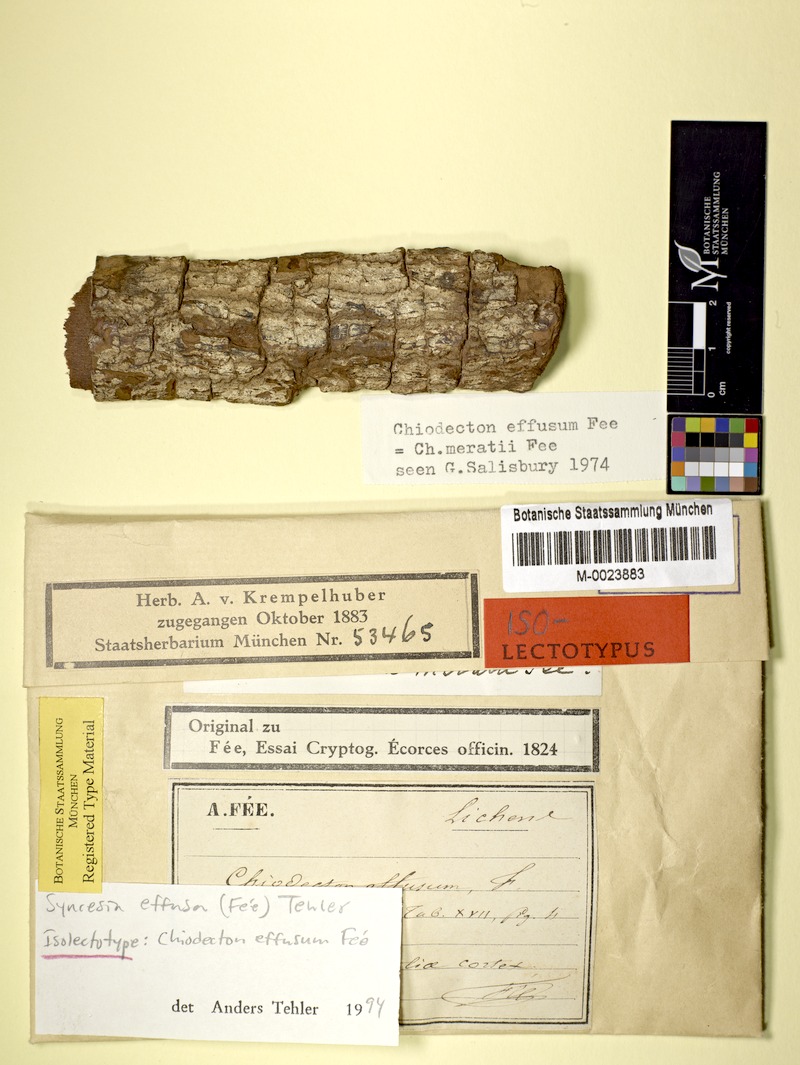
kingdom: Fungi
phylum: Ascomycota
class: Arthoniomycetes
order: Arthoniales
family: Roccellaceae
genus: Chiodecton
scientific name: Chiodecton effusum
